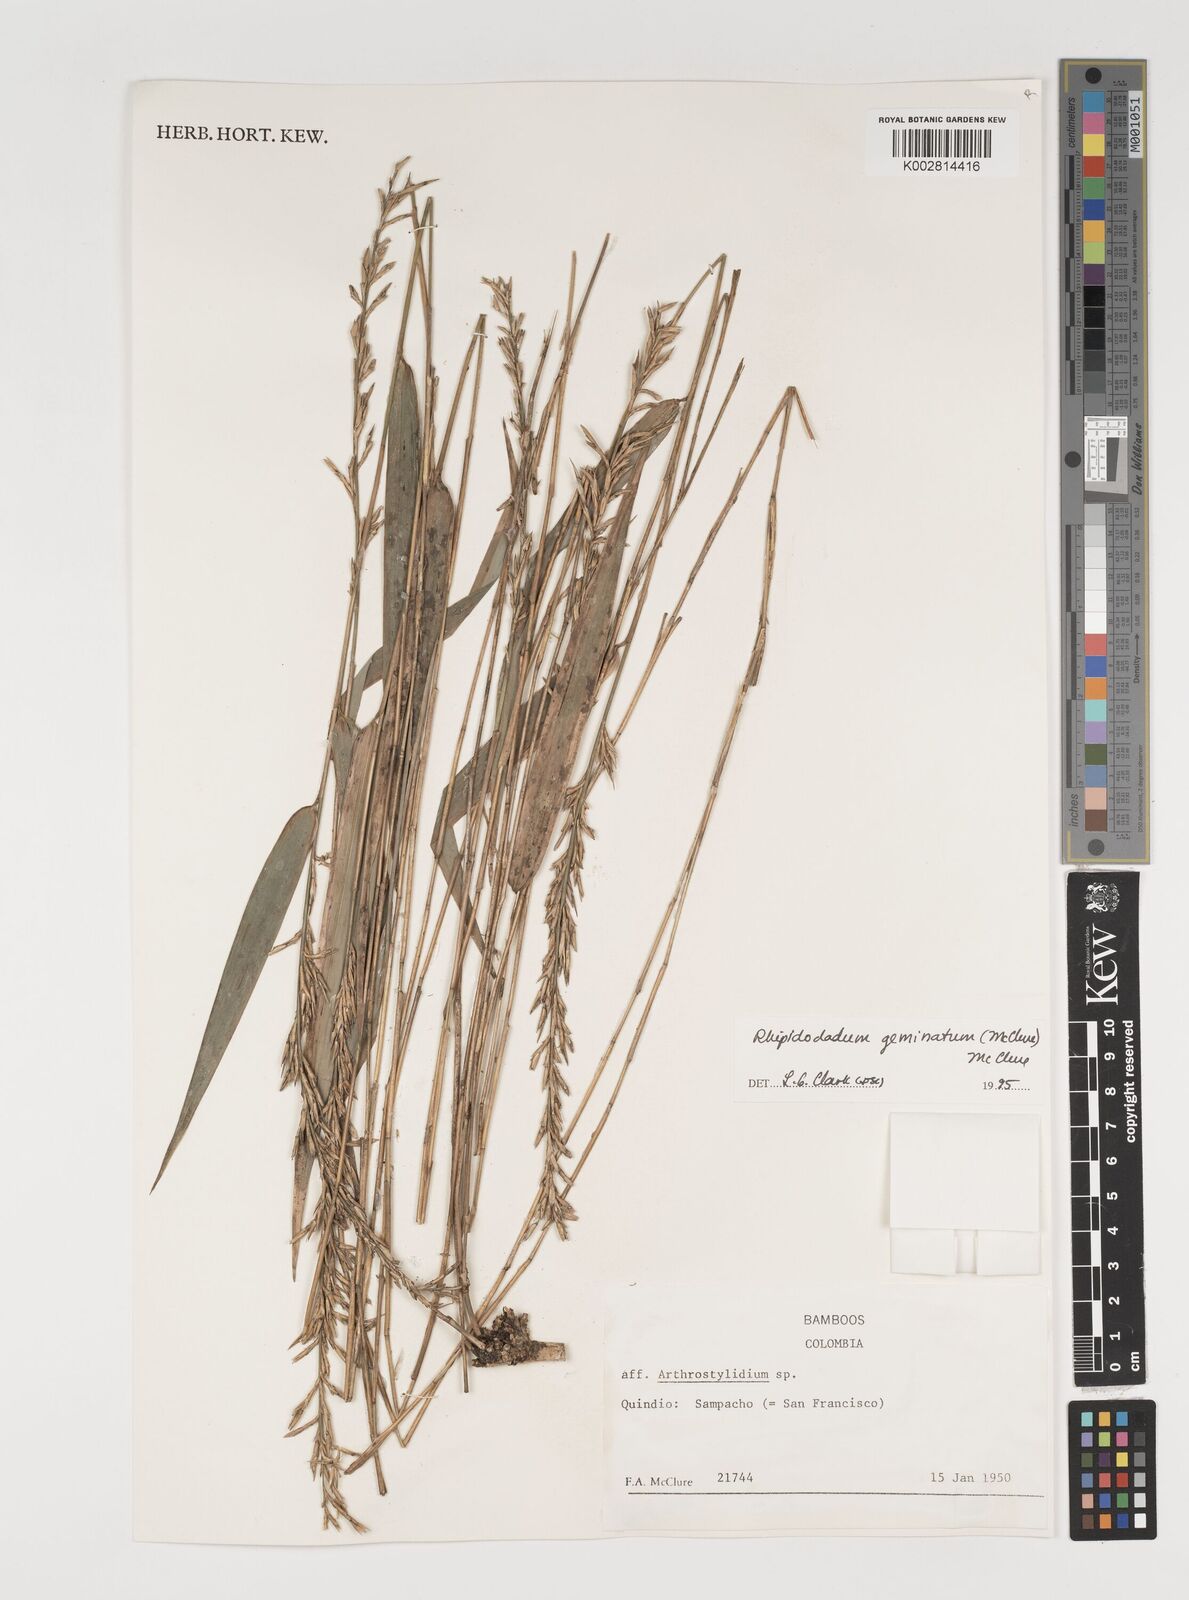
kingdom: Plantae
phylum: Tracheophyta
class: Liliopsida
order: Poales
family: Poaceae
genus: Didymogonyx
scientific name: Didymogonyx geminatum
